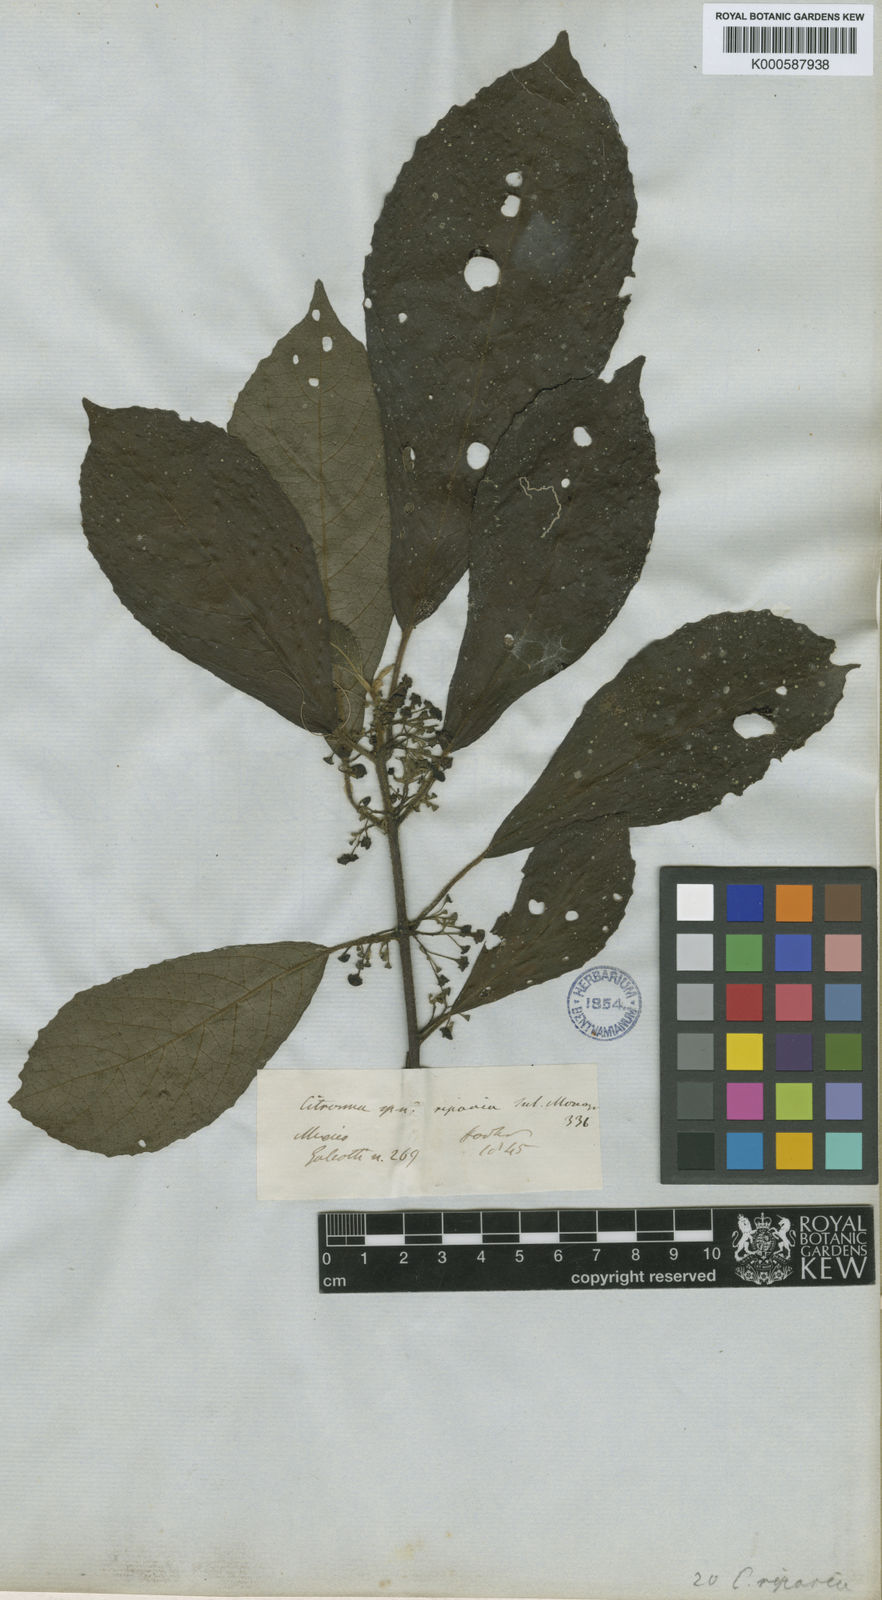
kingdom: Plantae
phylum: Tracheophyta
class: Magnoliopsida
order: Laurales
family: Siparunaceae
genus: Siparuna
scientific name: Siparuna thecaphora
